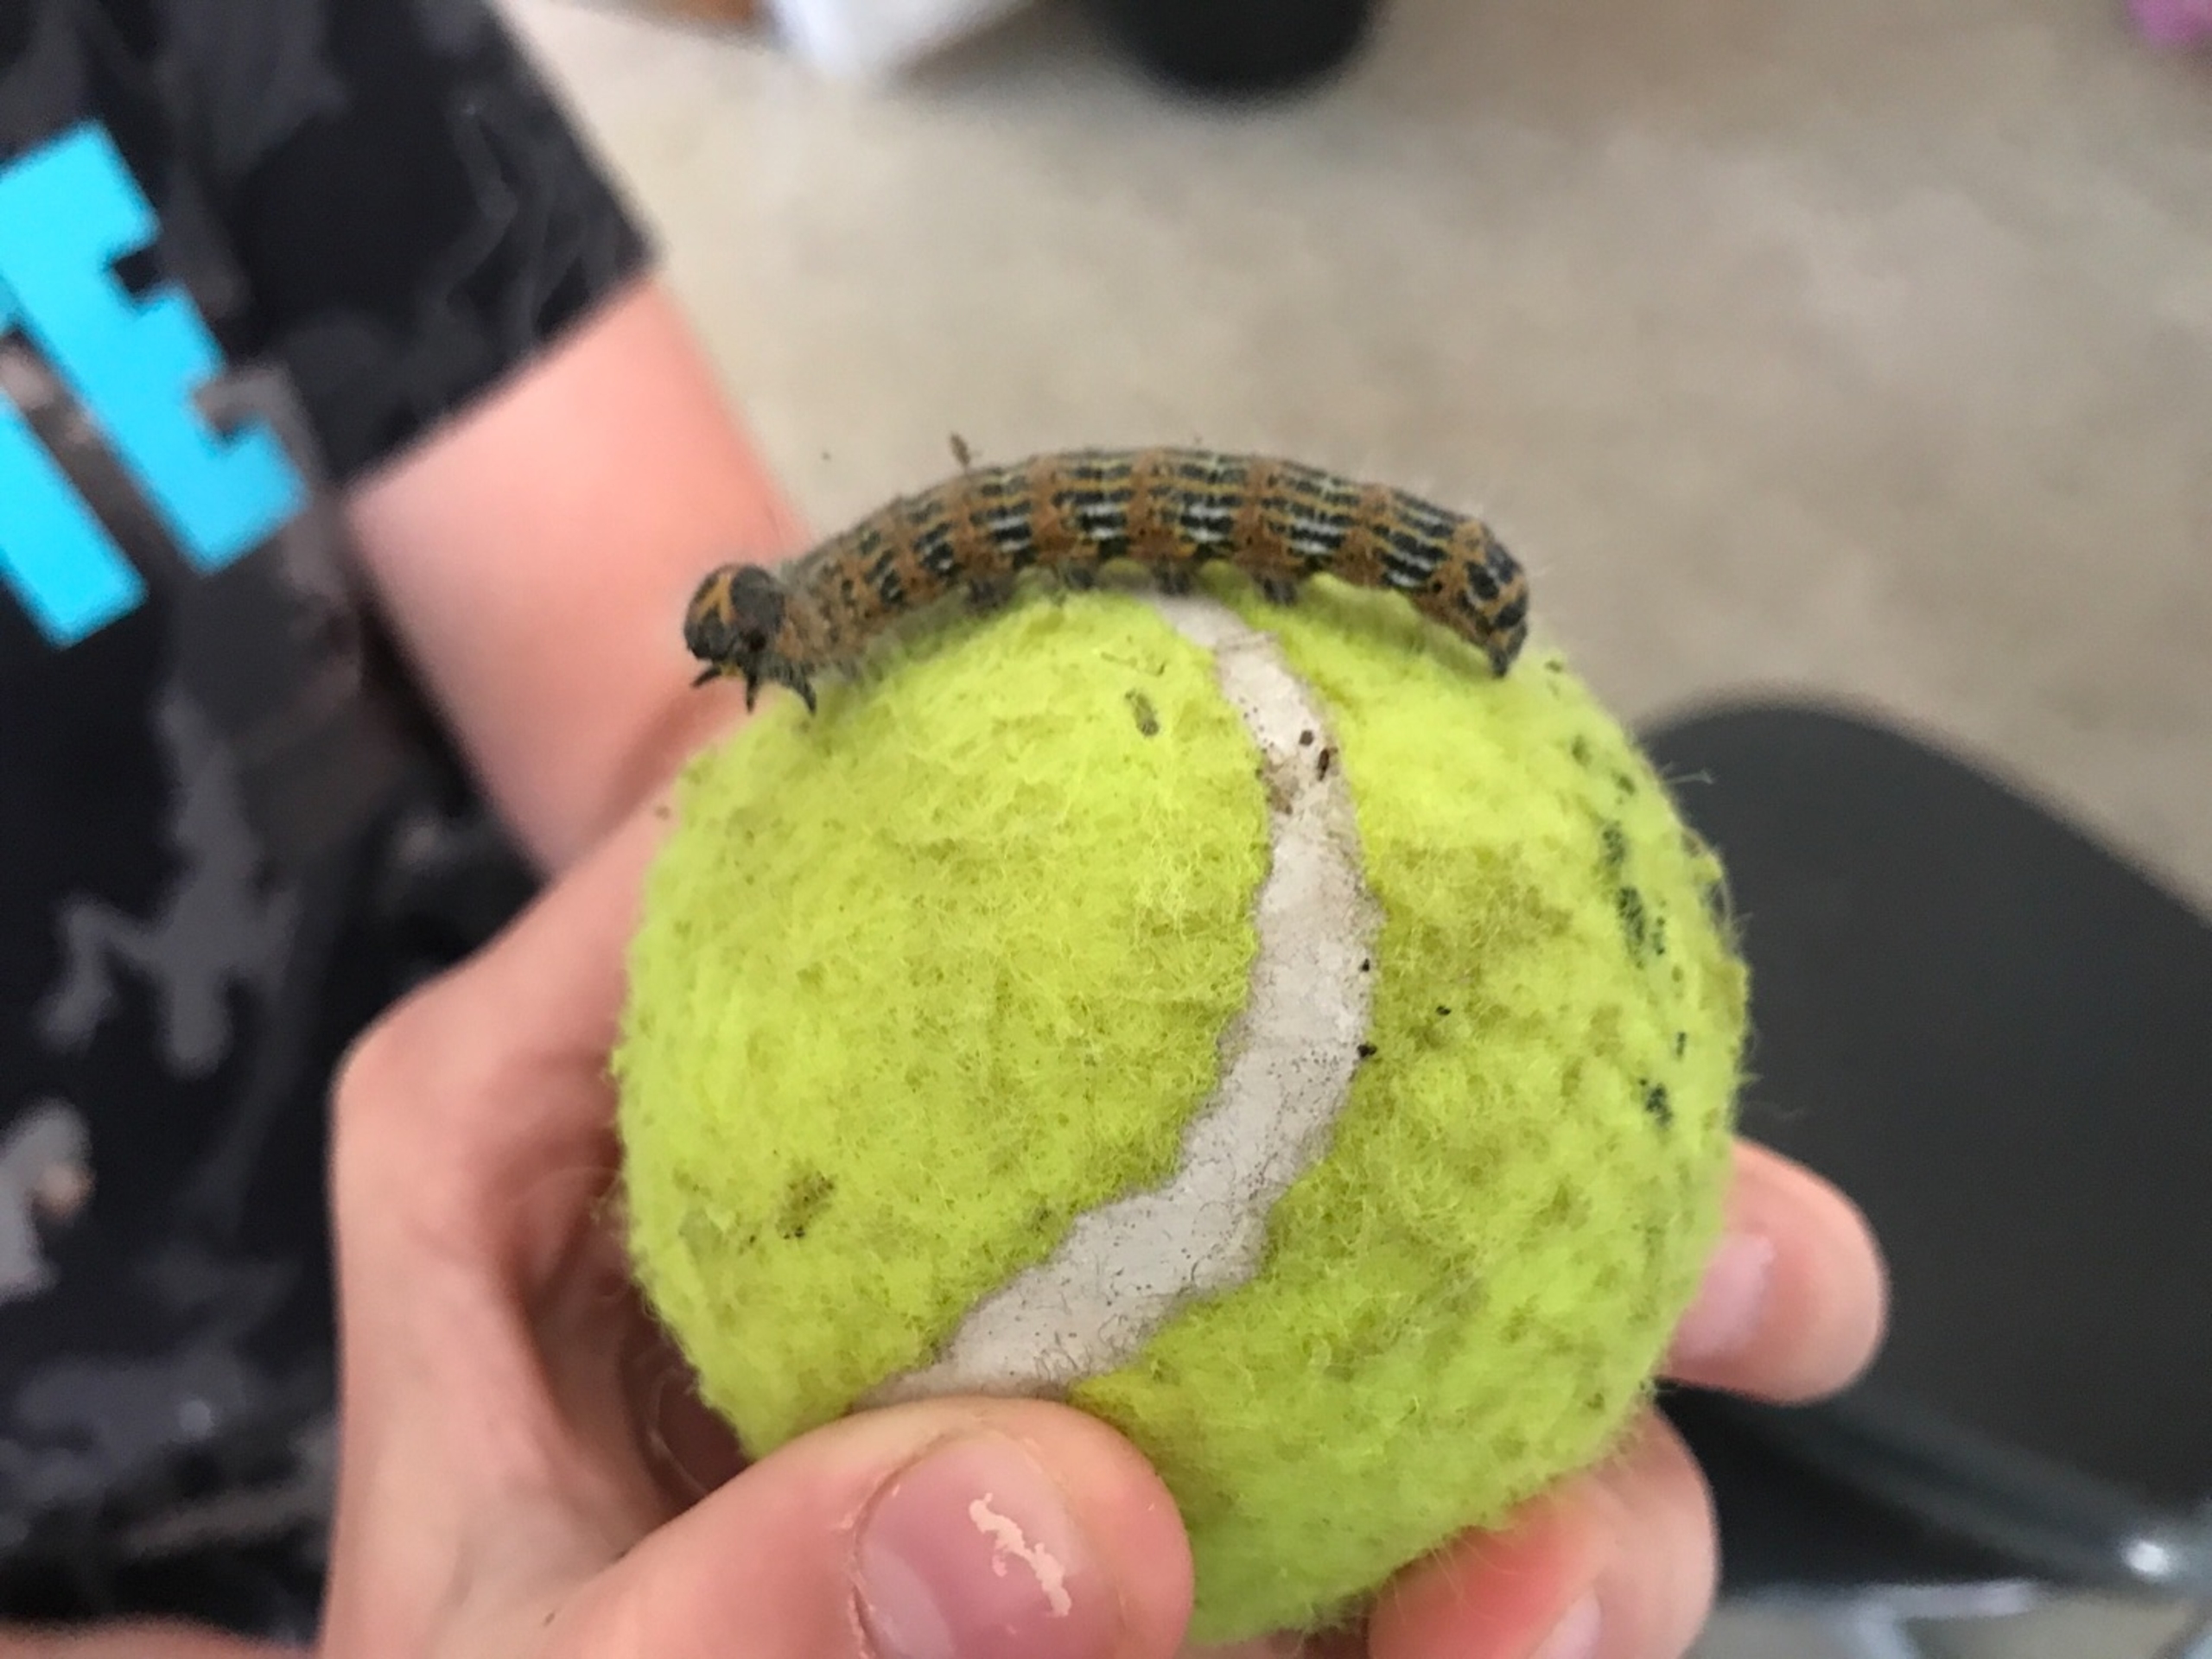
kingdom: Animalia
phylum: Arthropoda
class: Insecta
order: Lepidoptera
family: Notodontidae
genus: Phalera
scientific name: Phalera bucephala
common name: Måneplet
